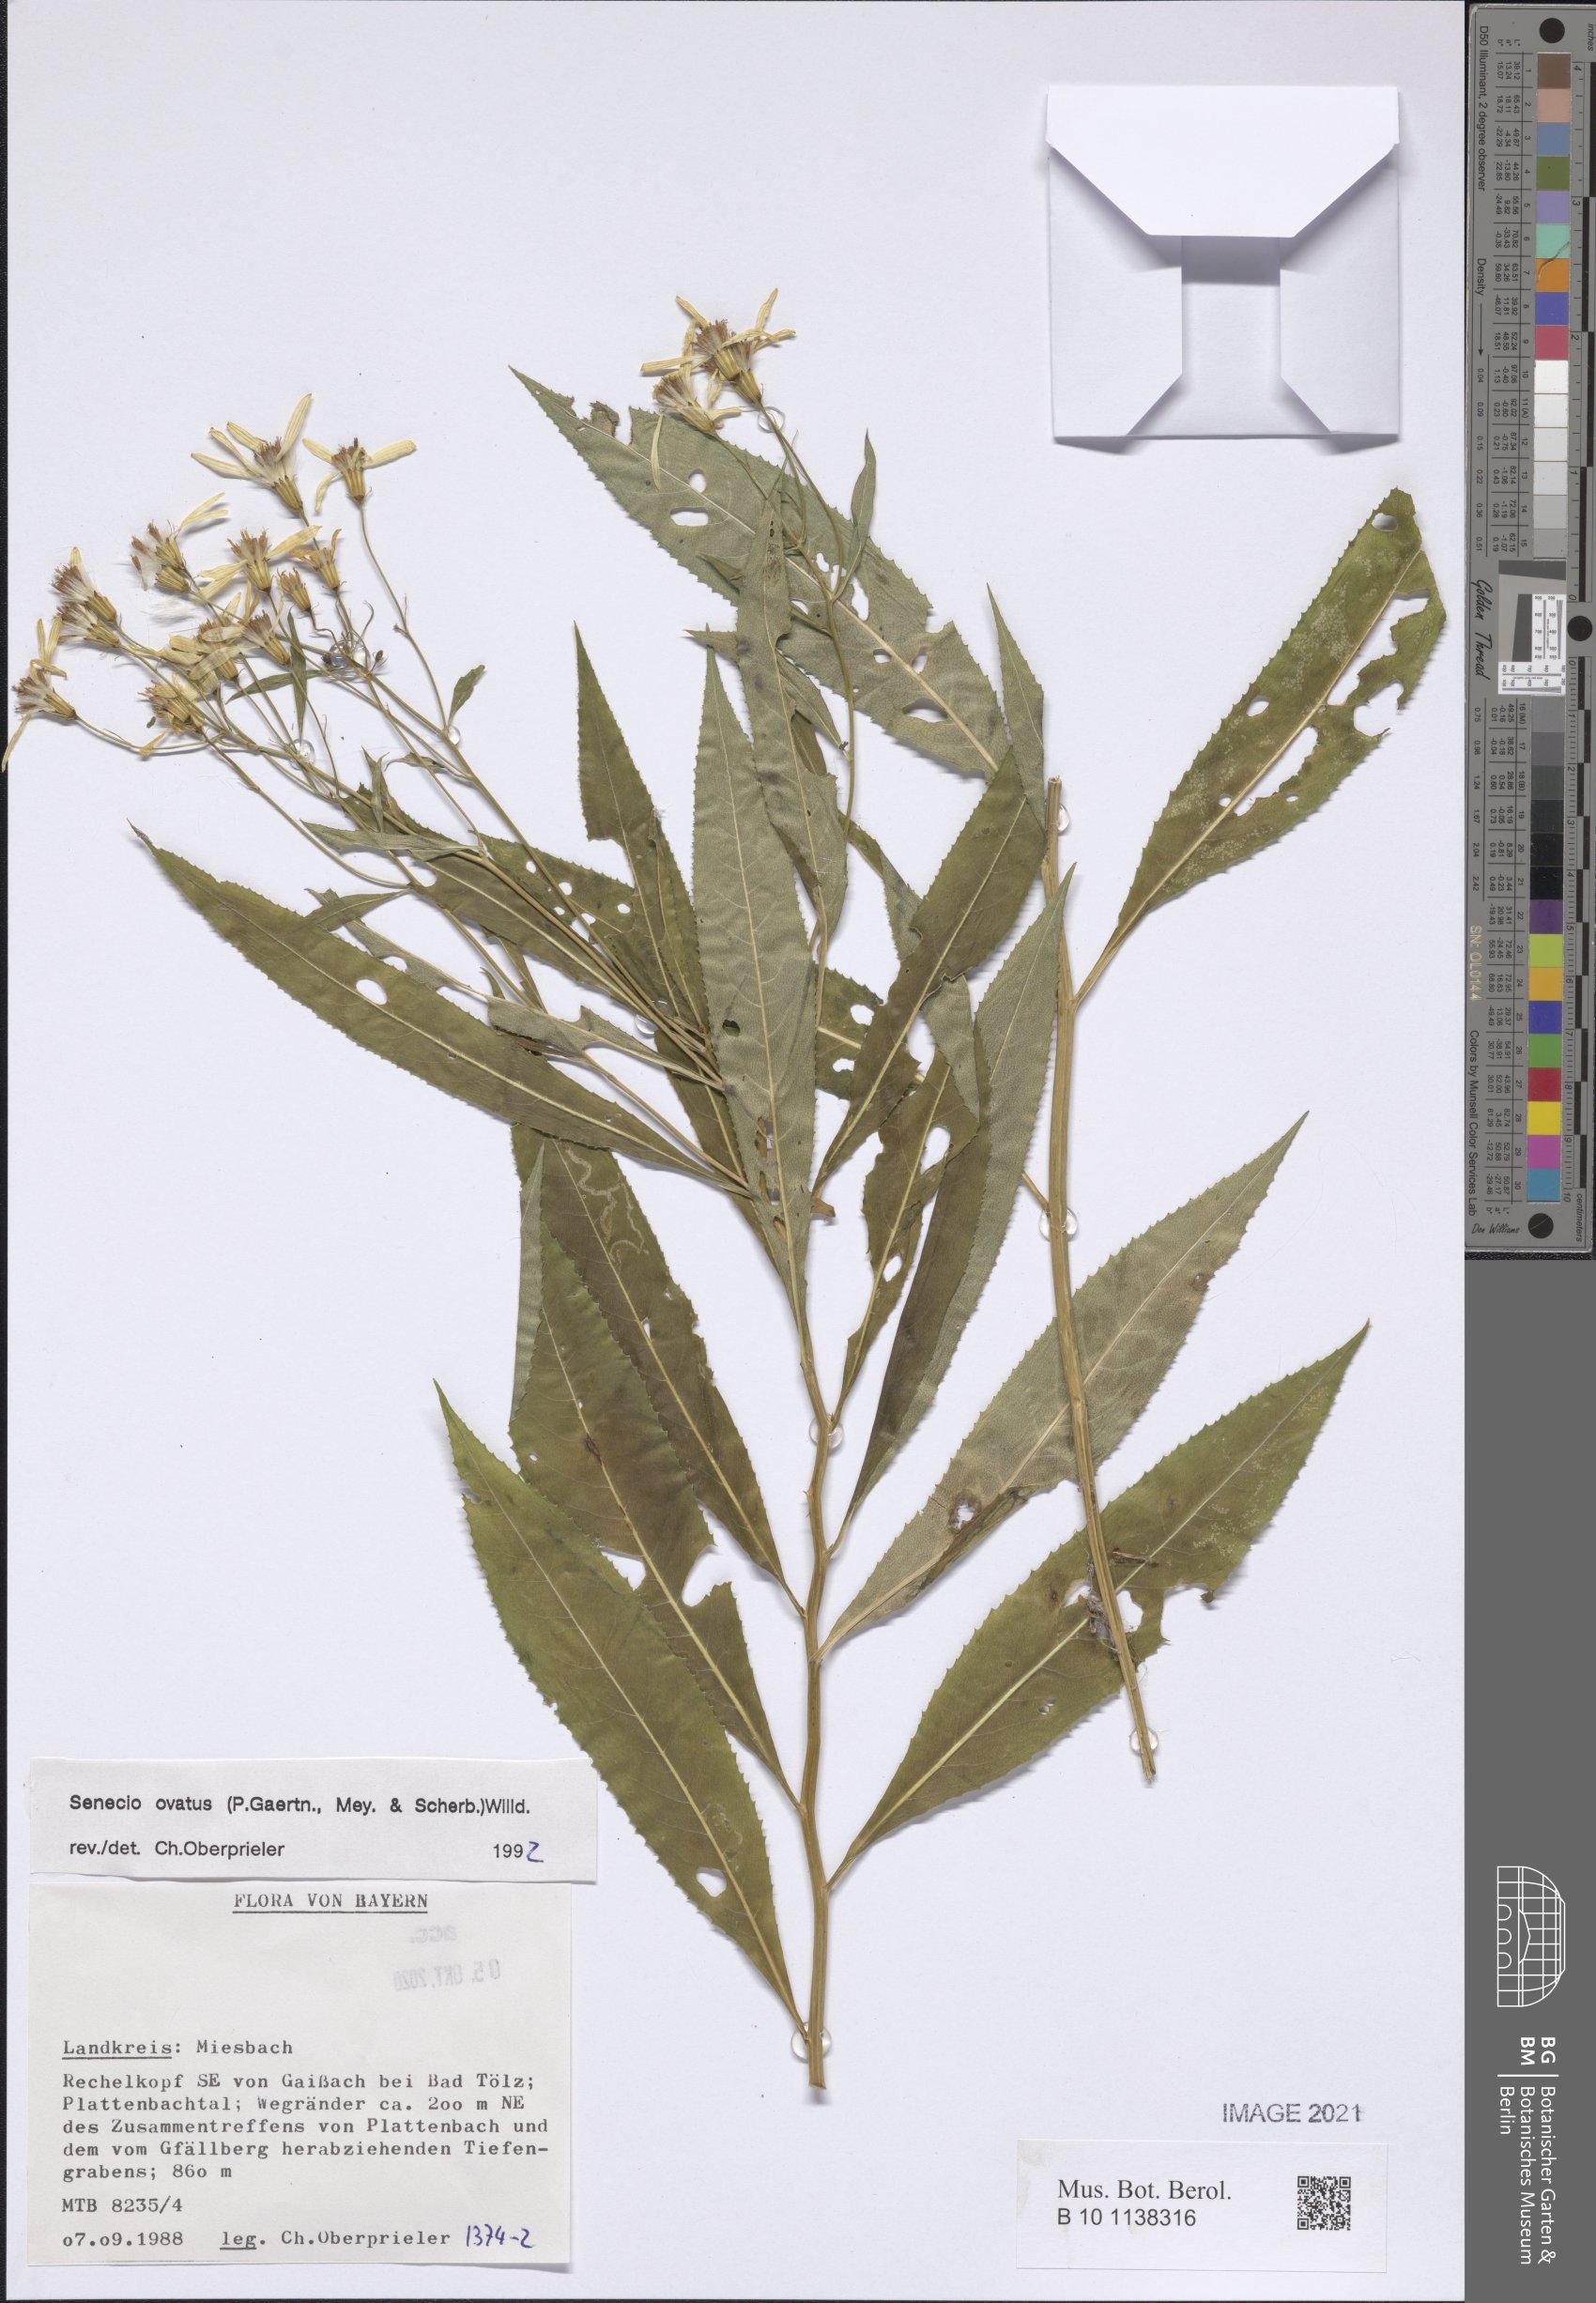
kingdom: Plantae
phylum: Tracheophyta
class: Magnoliopsida
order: Asterales
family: Asteraceae
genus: Senecio
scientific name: Senecio ovatus
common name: Wood ragwort
